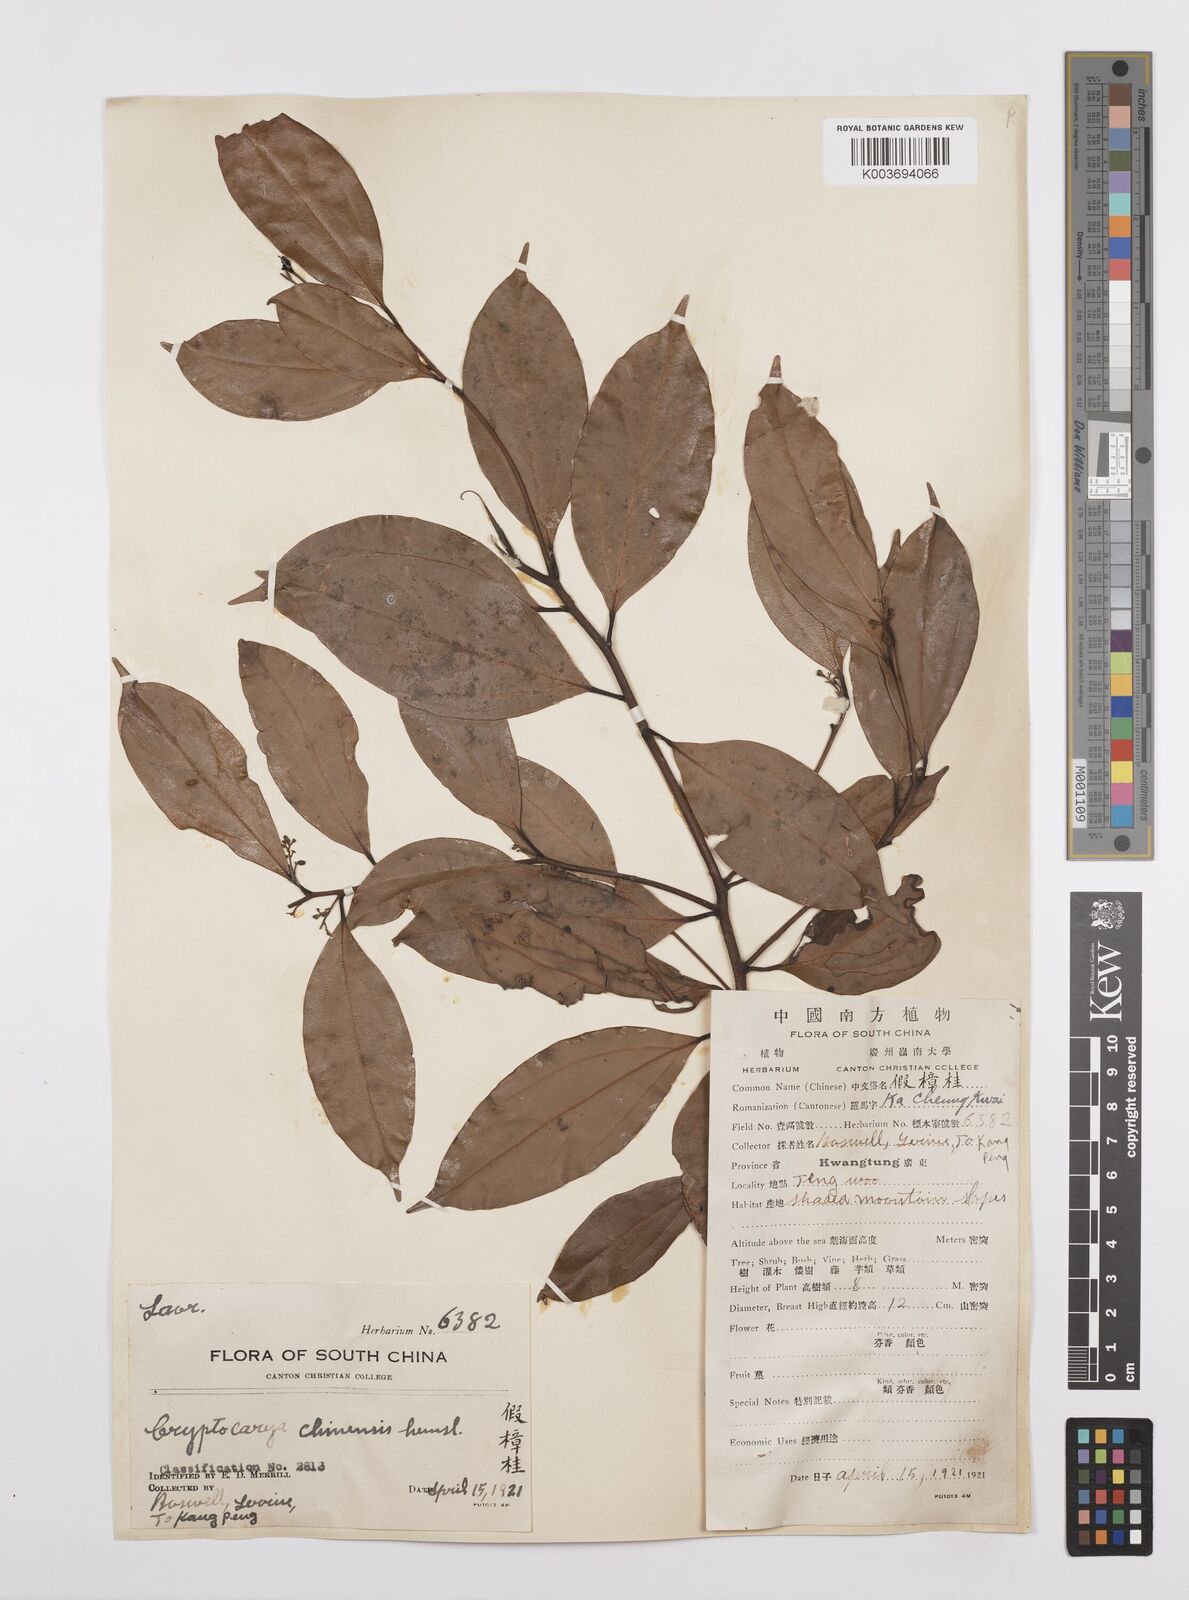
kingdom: Plantae
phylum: Tracheophyta
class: Magnoliopsida
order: Laurales
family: Lauraceae
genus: Cryptocarya
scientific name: Cryptocarya chinensis
